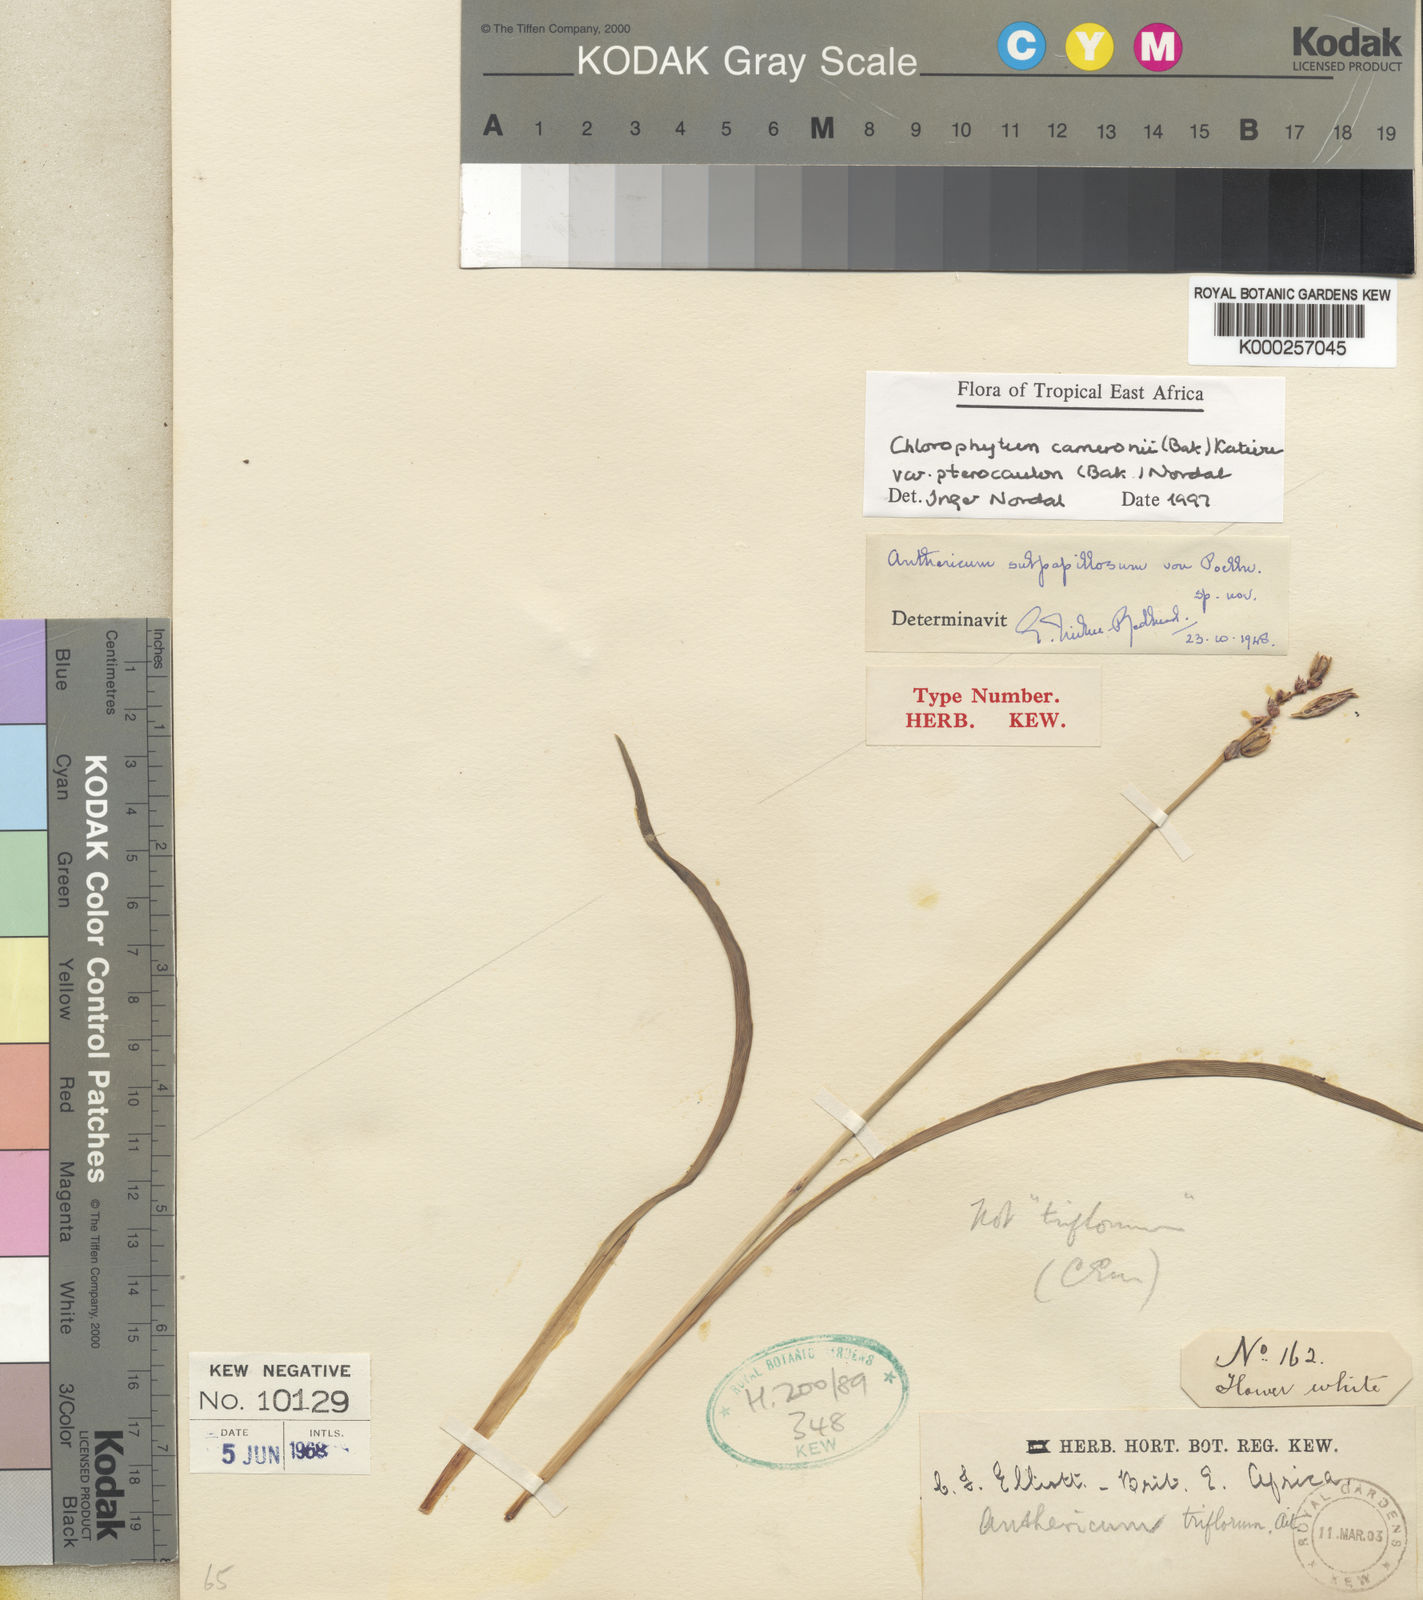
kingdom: Plantae
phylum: Tracheophyta
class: Liliopsida
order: Asparagales
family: Asparagaceae
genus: Chlorophytum
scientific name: Chlorophytum cameronii
